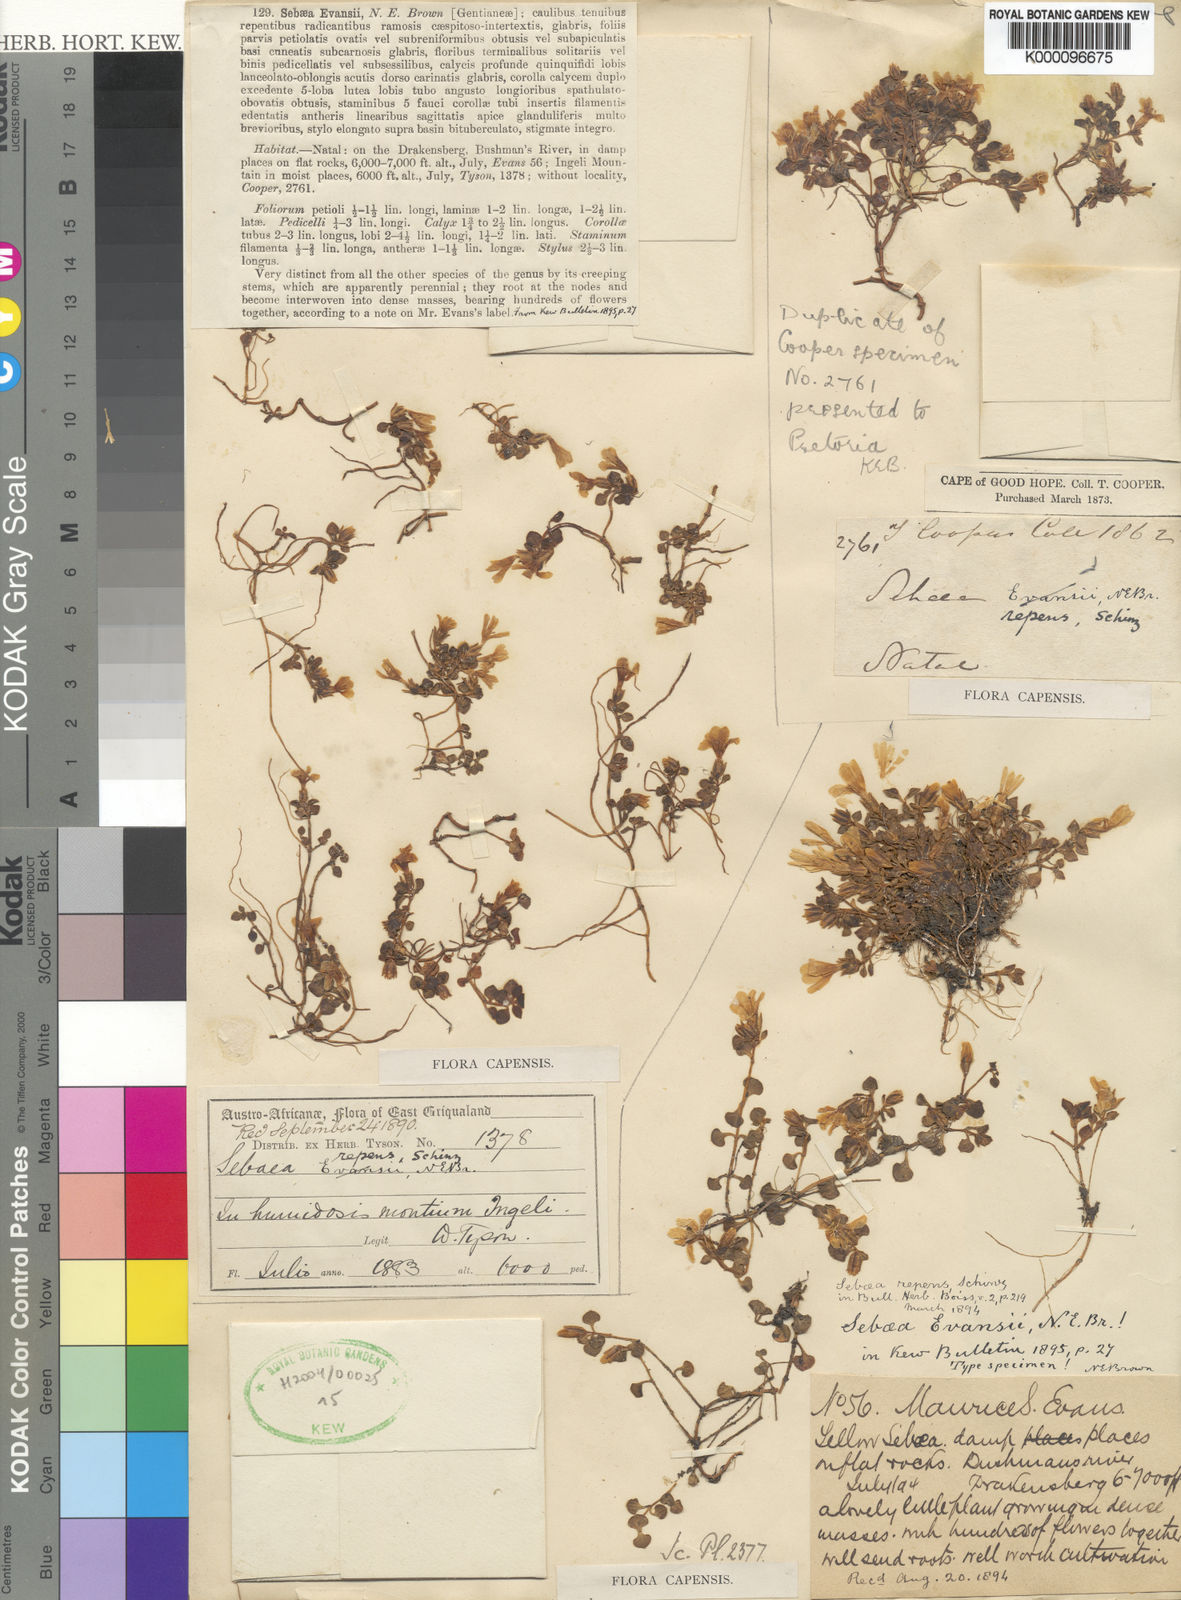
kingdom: Plantae
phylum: Tracheophyta
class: Magnoliopsida
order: Gentianales
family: Gentianaceae
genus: Sebaea
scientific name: Sebaea repens
